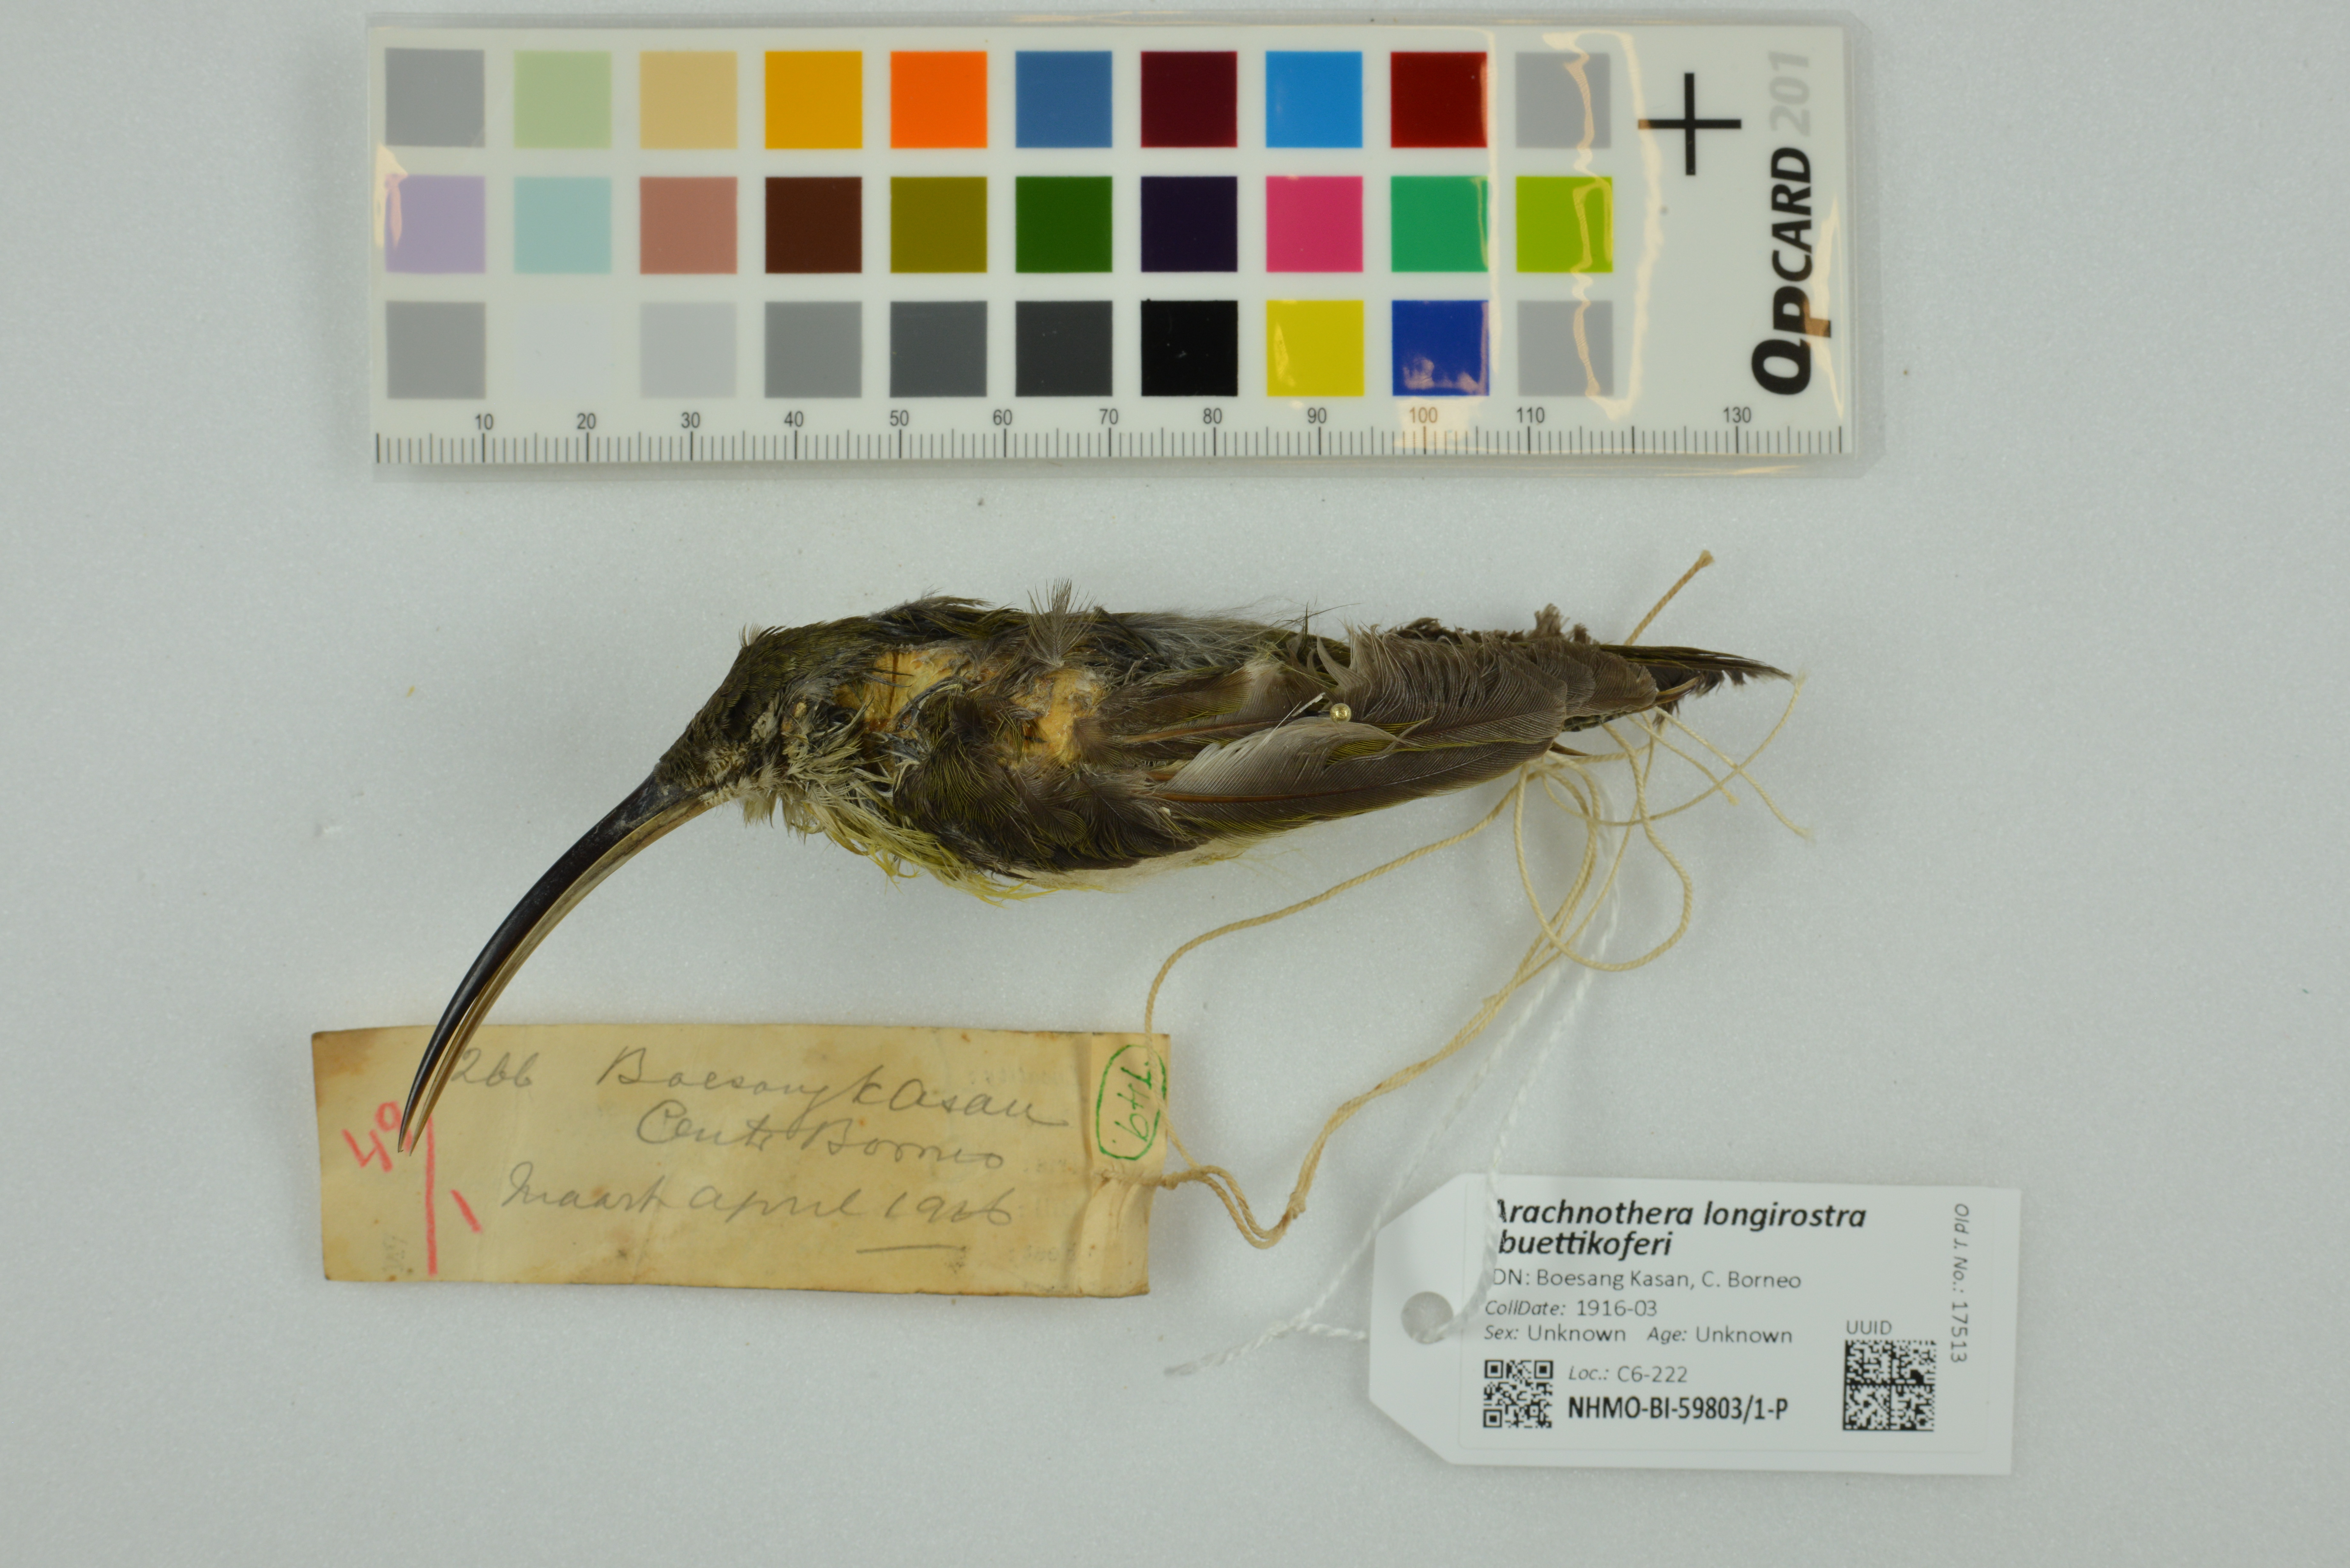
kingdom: Animalia
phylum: Chordata
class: Aves
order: Passeriformes
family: Nectariniidae
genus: Arachnothera
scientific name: Arachnothera longirostra
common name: Little spiderhunter
